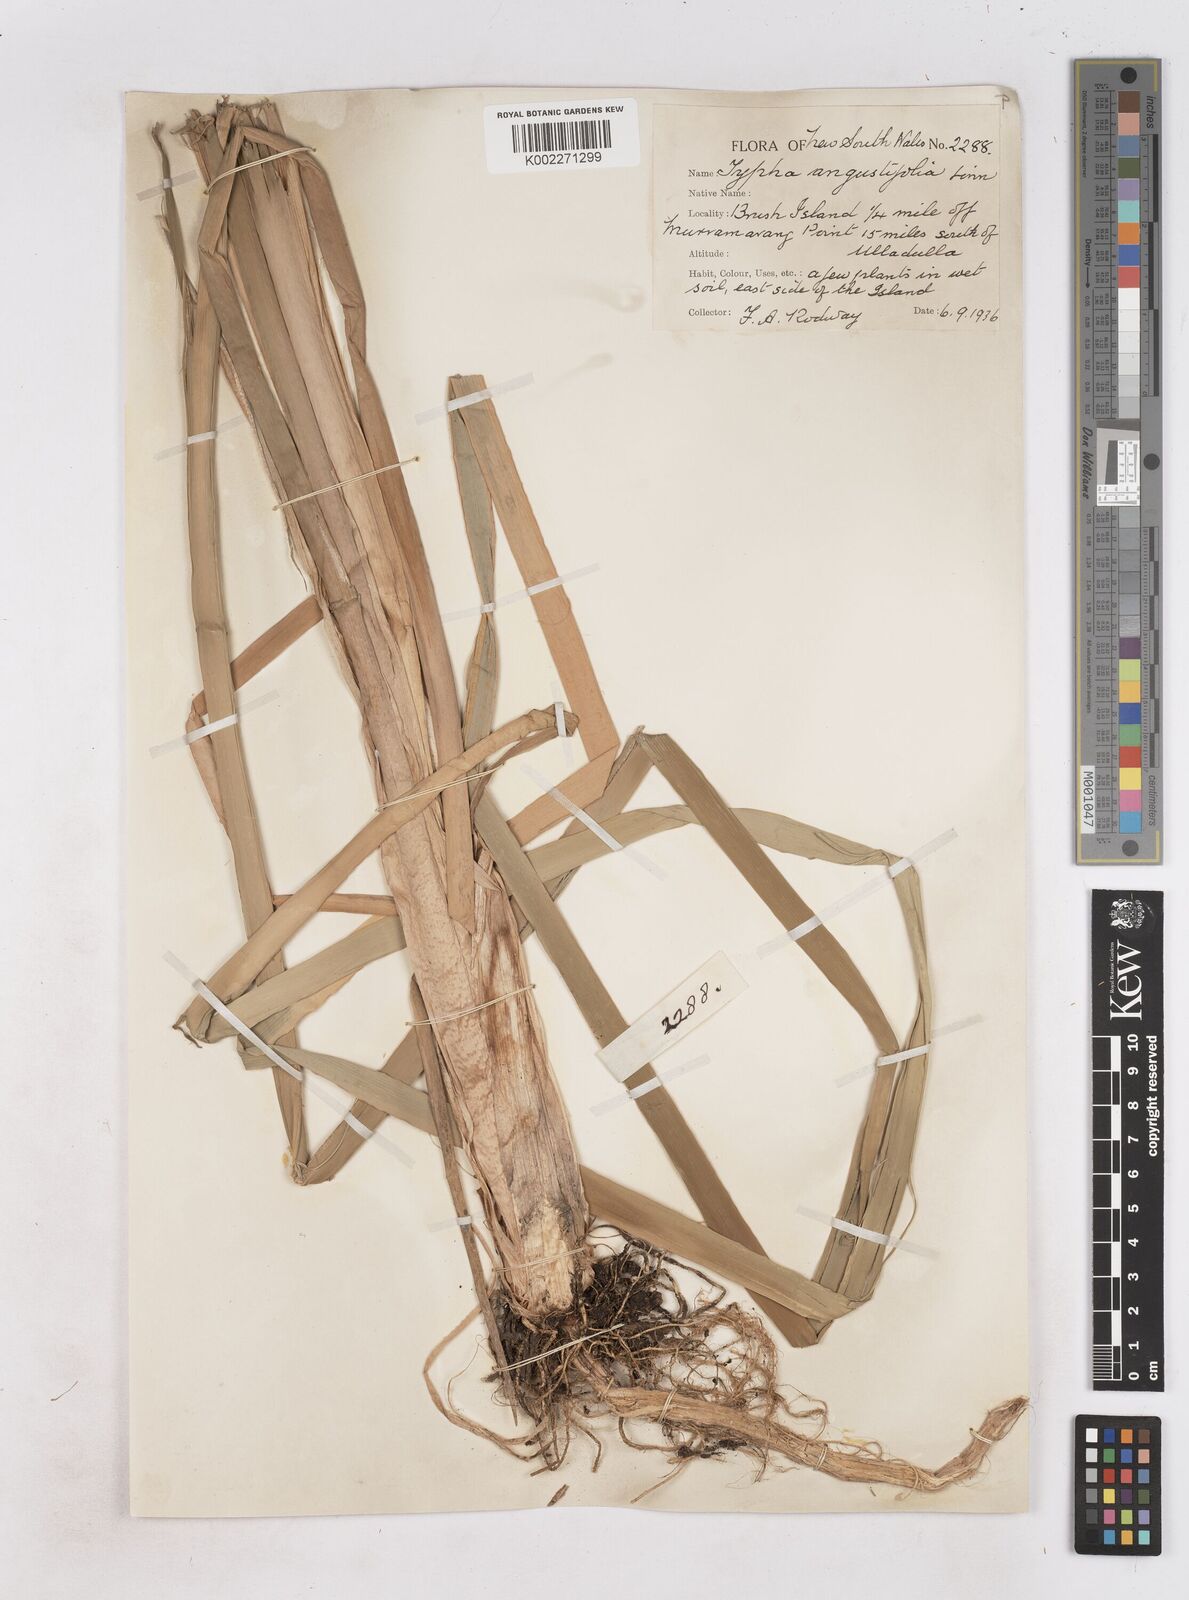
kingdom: Plantae
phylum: Tracheophyta
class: Liliopsida
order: Poales
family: Typhaceae
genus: Typha
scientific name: Typha domingensis
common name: Southern cattail
